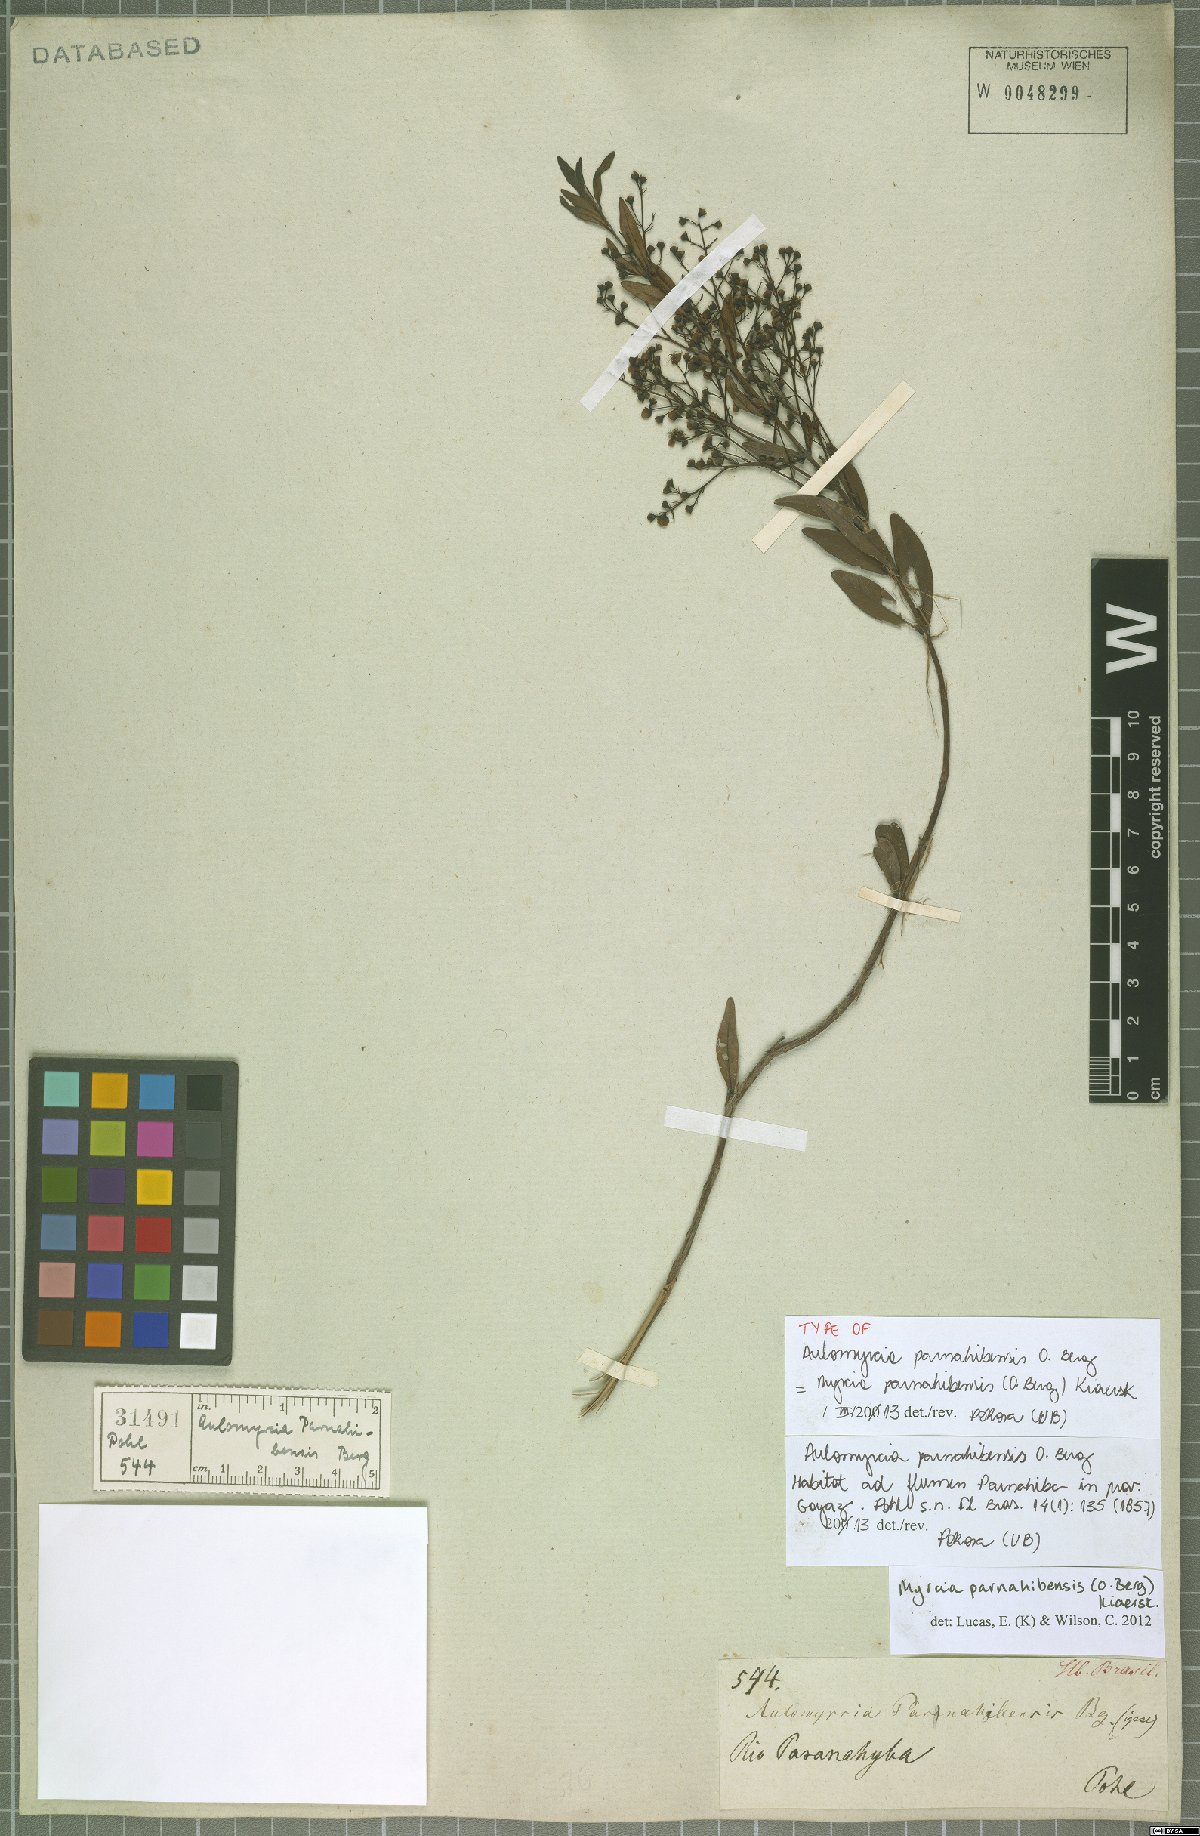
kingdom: Plantae
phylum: Tracheophyta
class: Magnoliopsida
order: Myrtales
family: Myrtaceae
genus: Myrcia
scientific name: Myrcia parnahibensis
